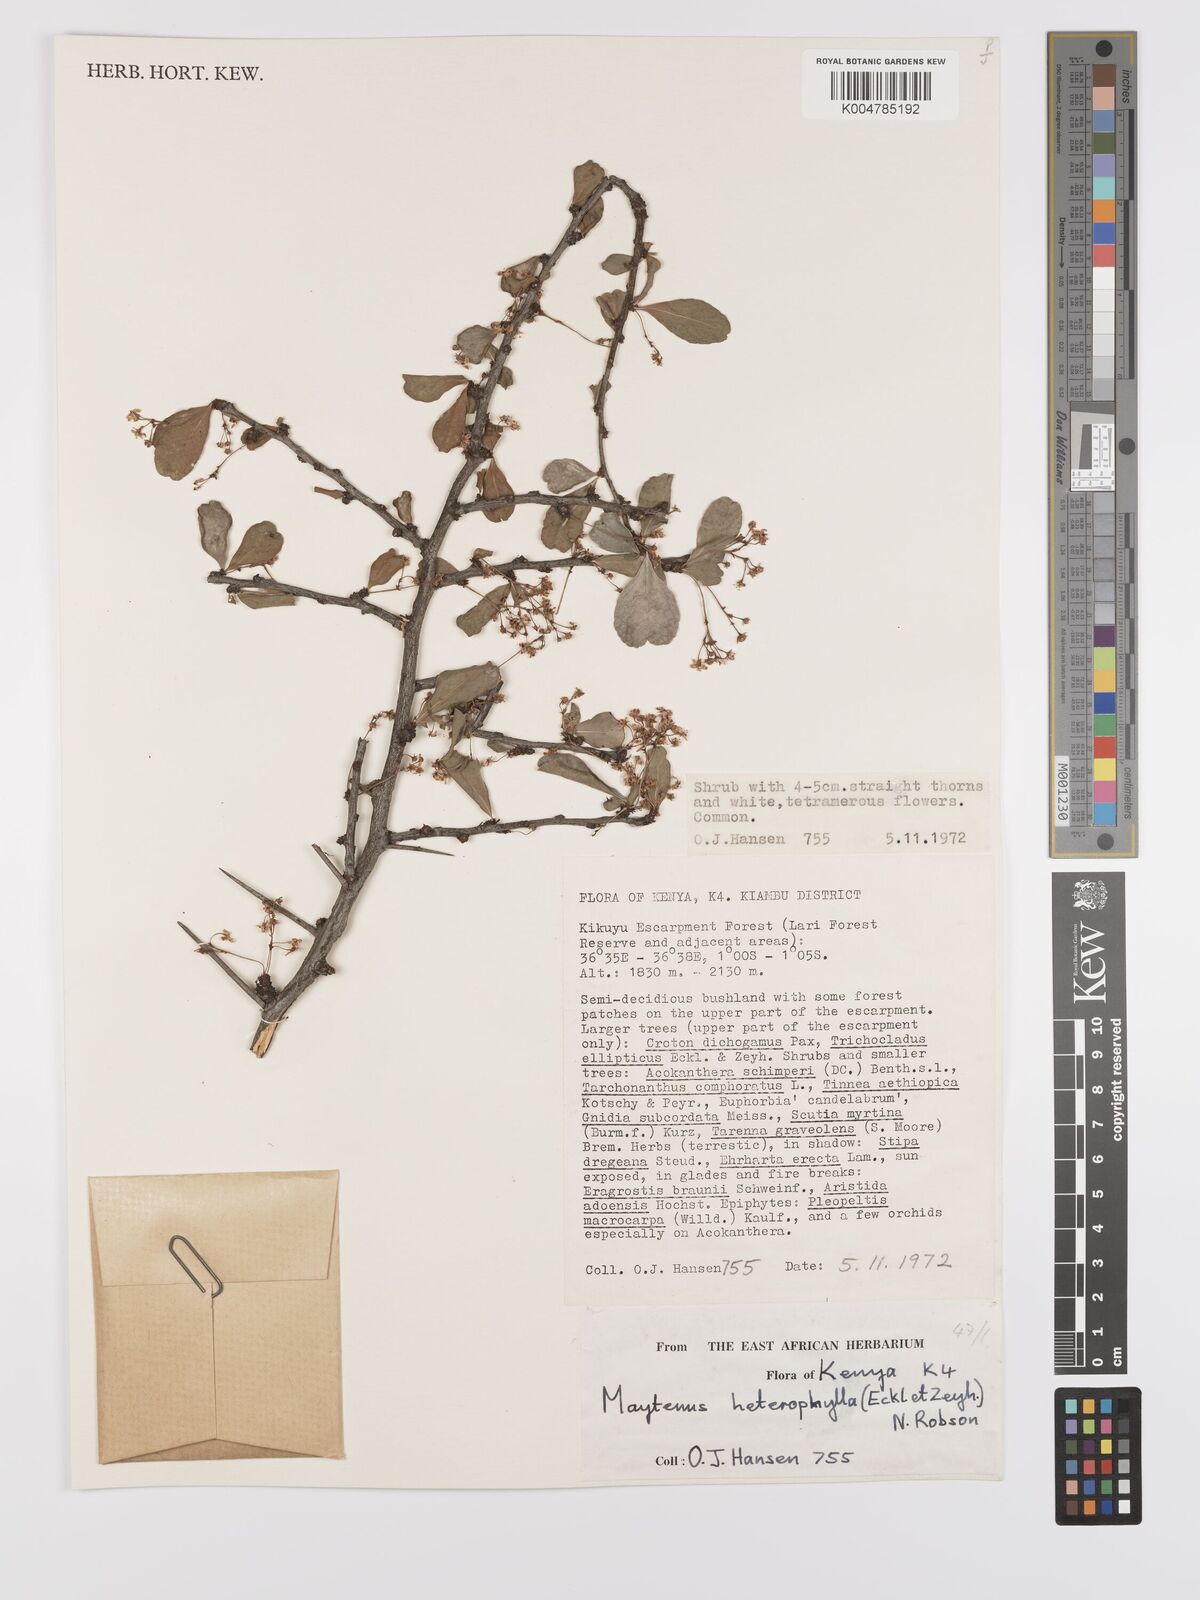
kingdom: Plantae
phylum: Tracheophyta
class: Magnoliopsida
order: Celastrales
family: Celastraceae
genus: Gymnosporia
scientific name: Gymnosporia heterophylla
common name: Angle-stem spikethorn
